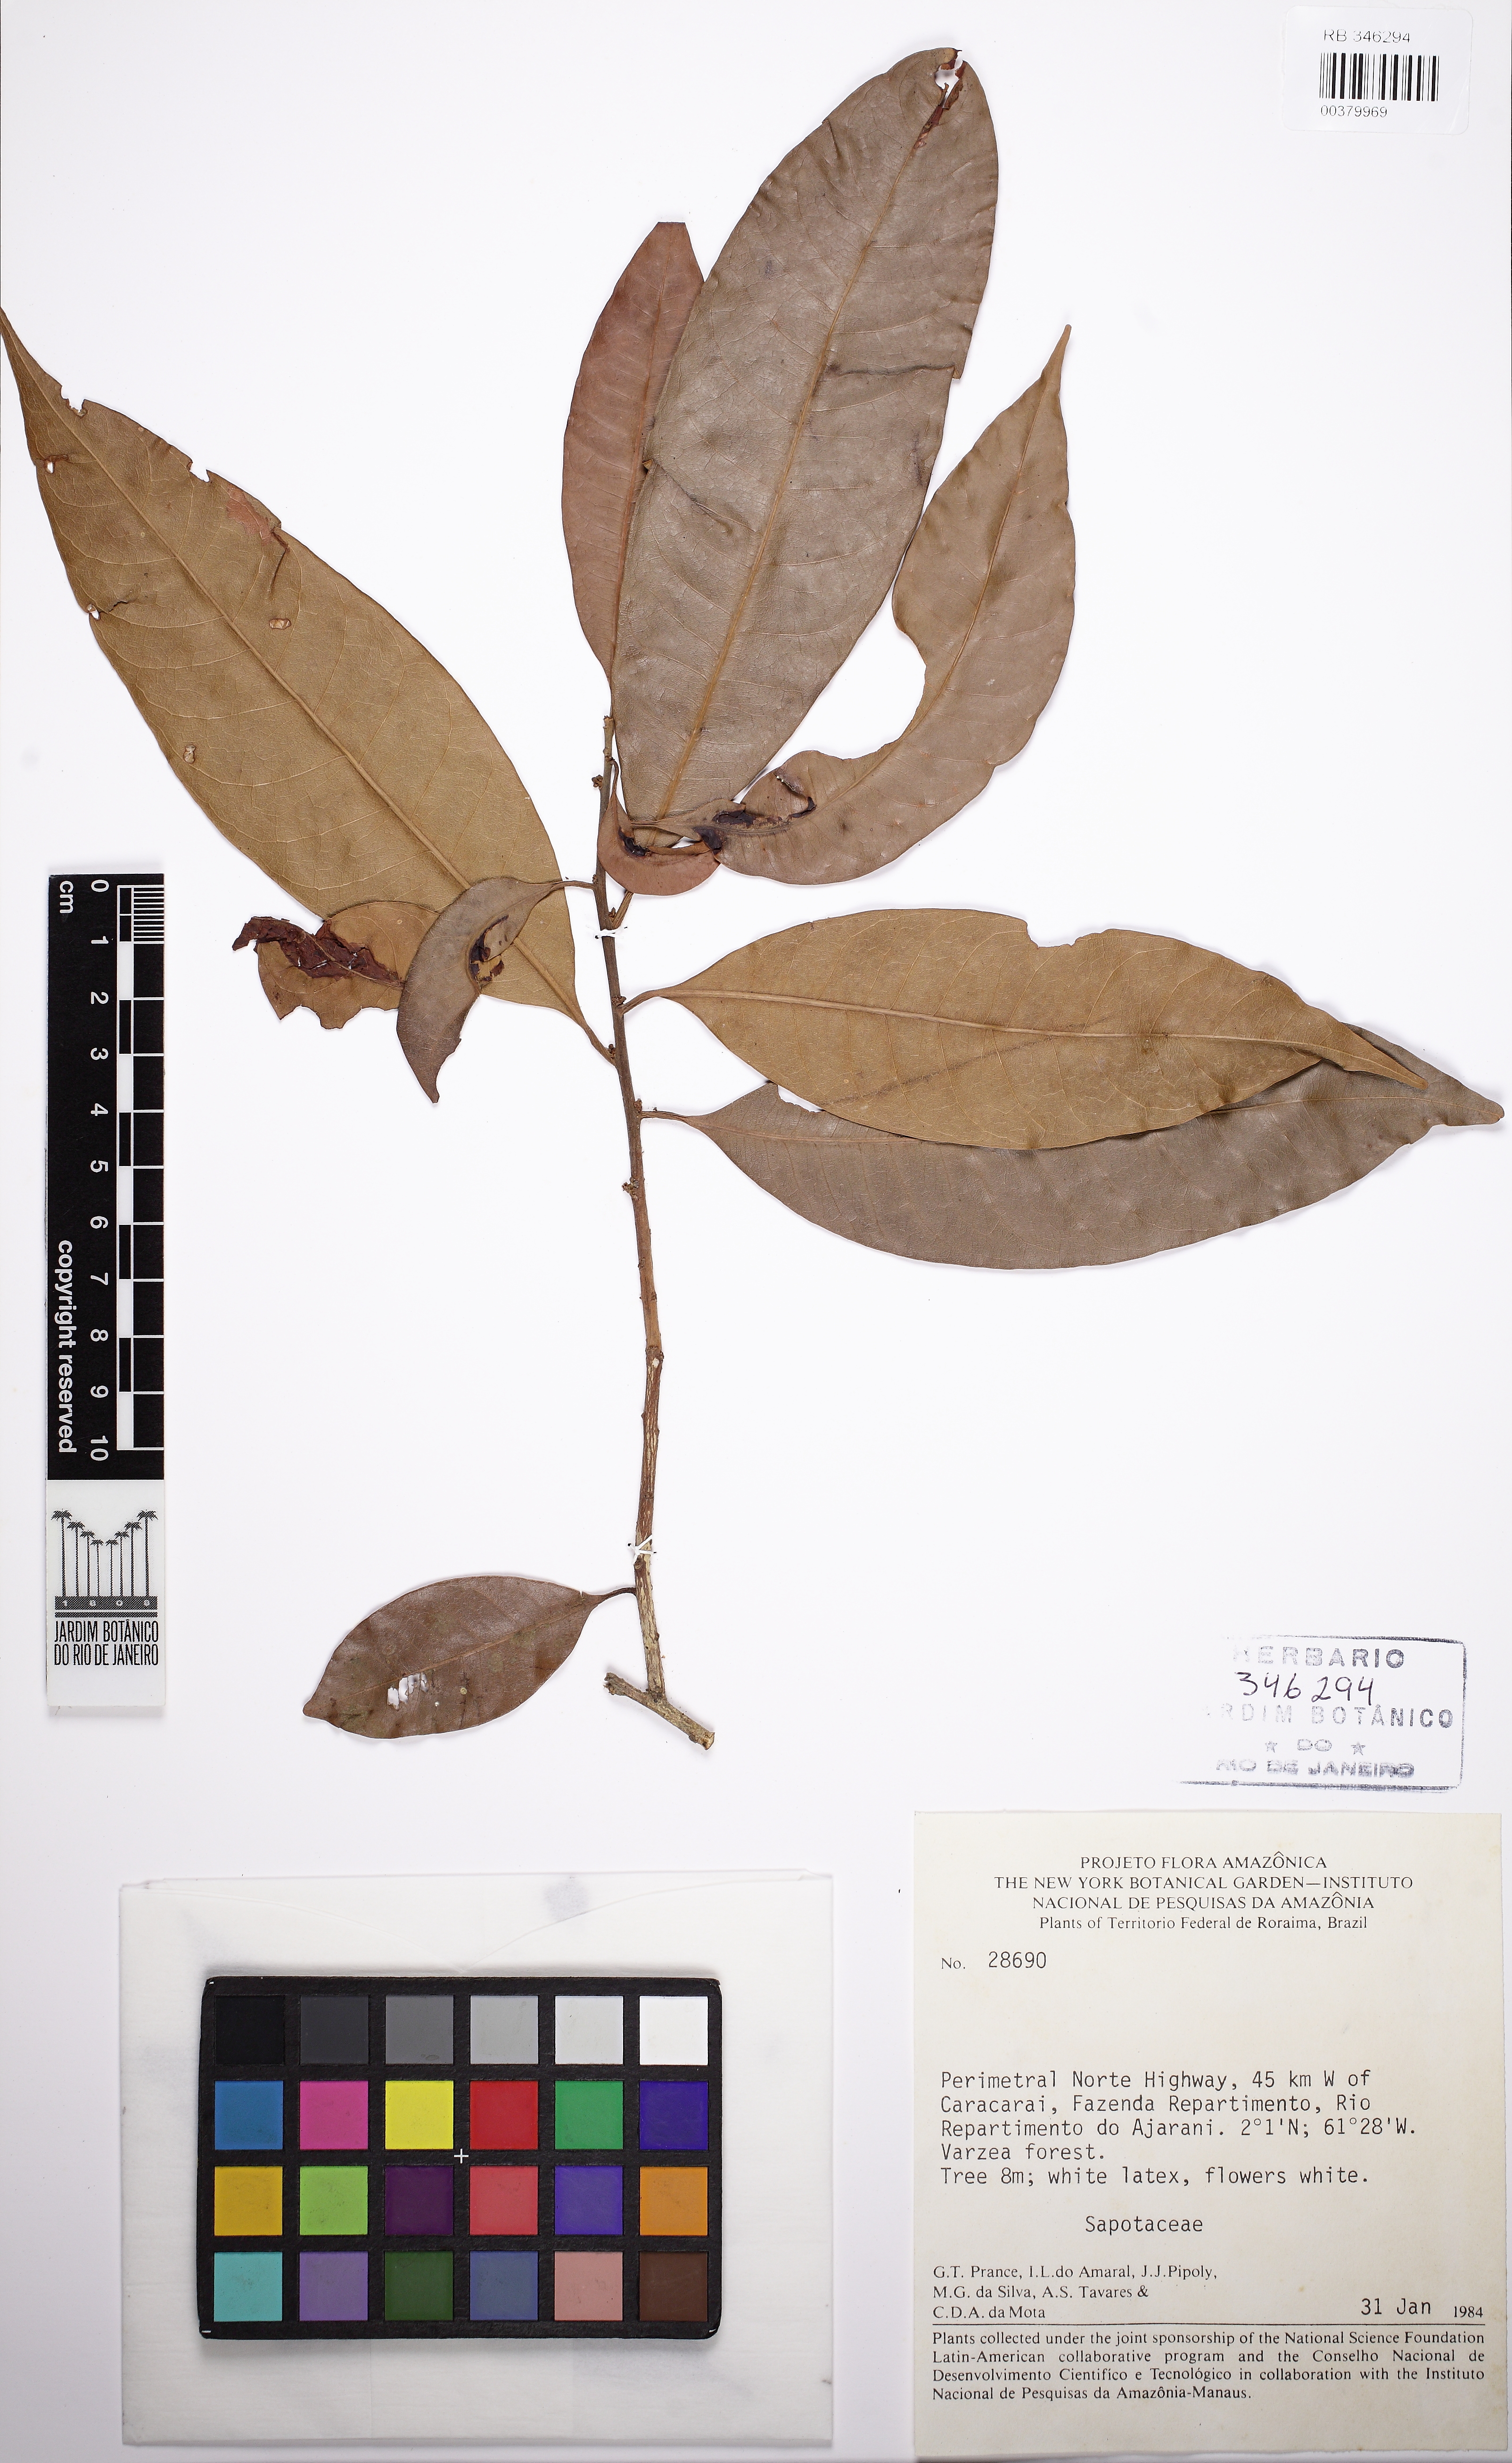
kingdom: Plantae
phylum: Tracheophyta
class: Magnoliopsida
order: Ericales
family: Sapotaceae
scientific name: Sapotaceae
